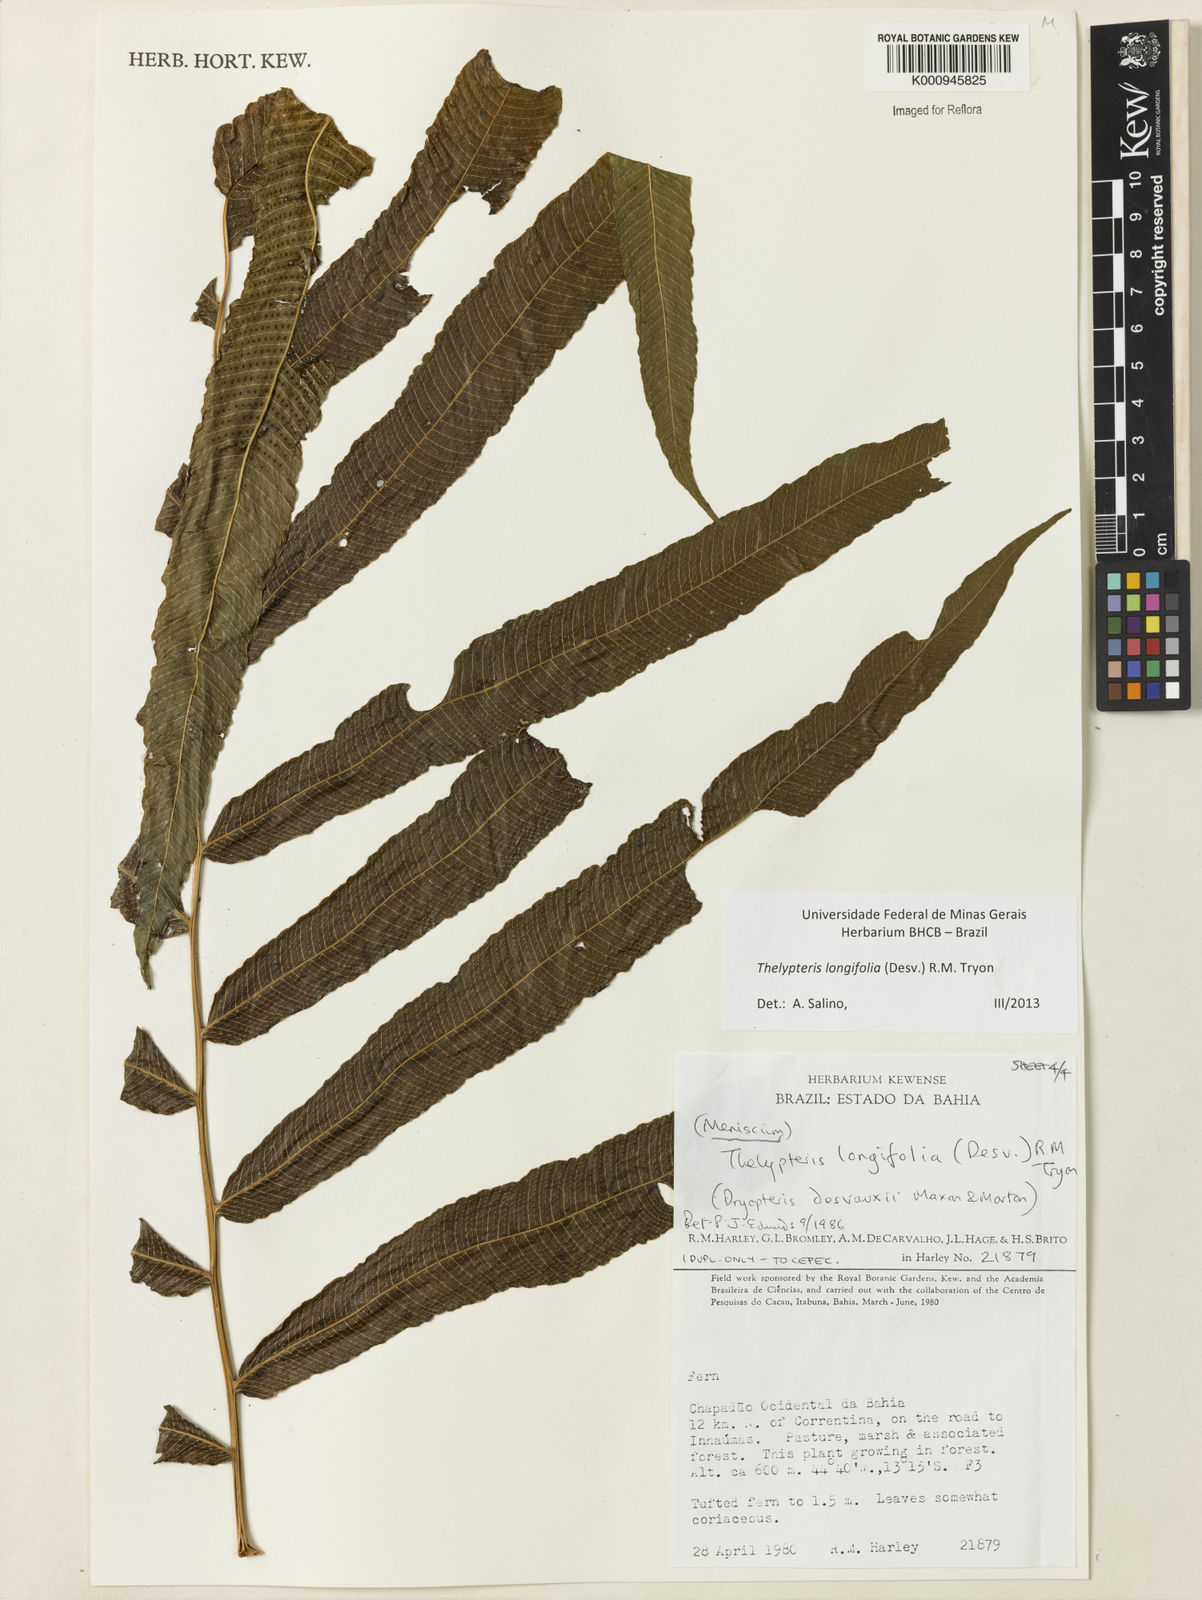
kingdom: Plantae
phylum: Tracheophyta
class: Polypodiopsida
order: Polypodiales
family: Thelypteridaceae
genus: Meniscium
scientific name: Meniscium longifolium
